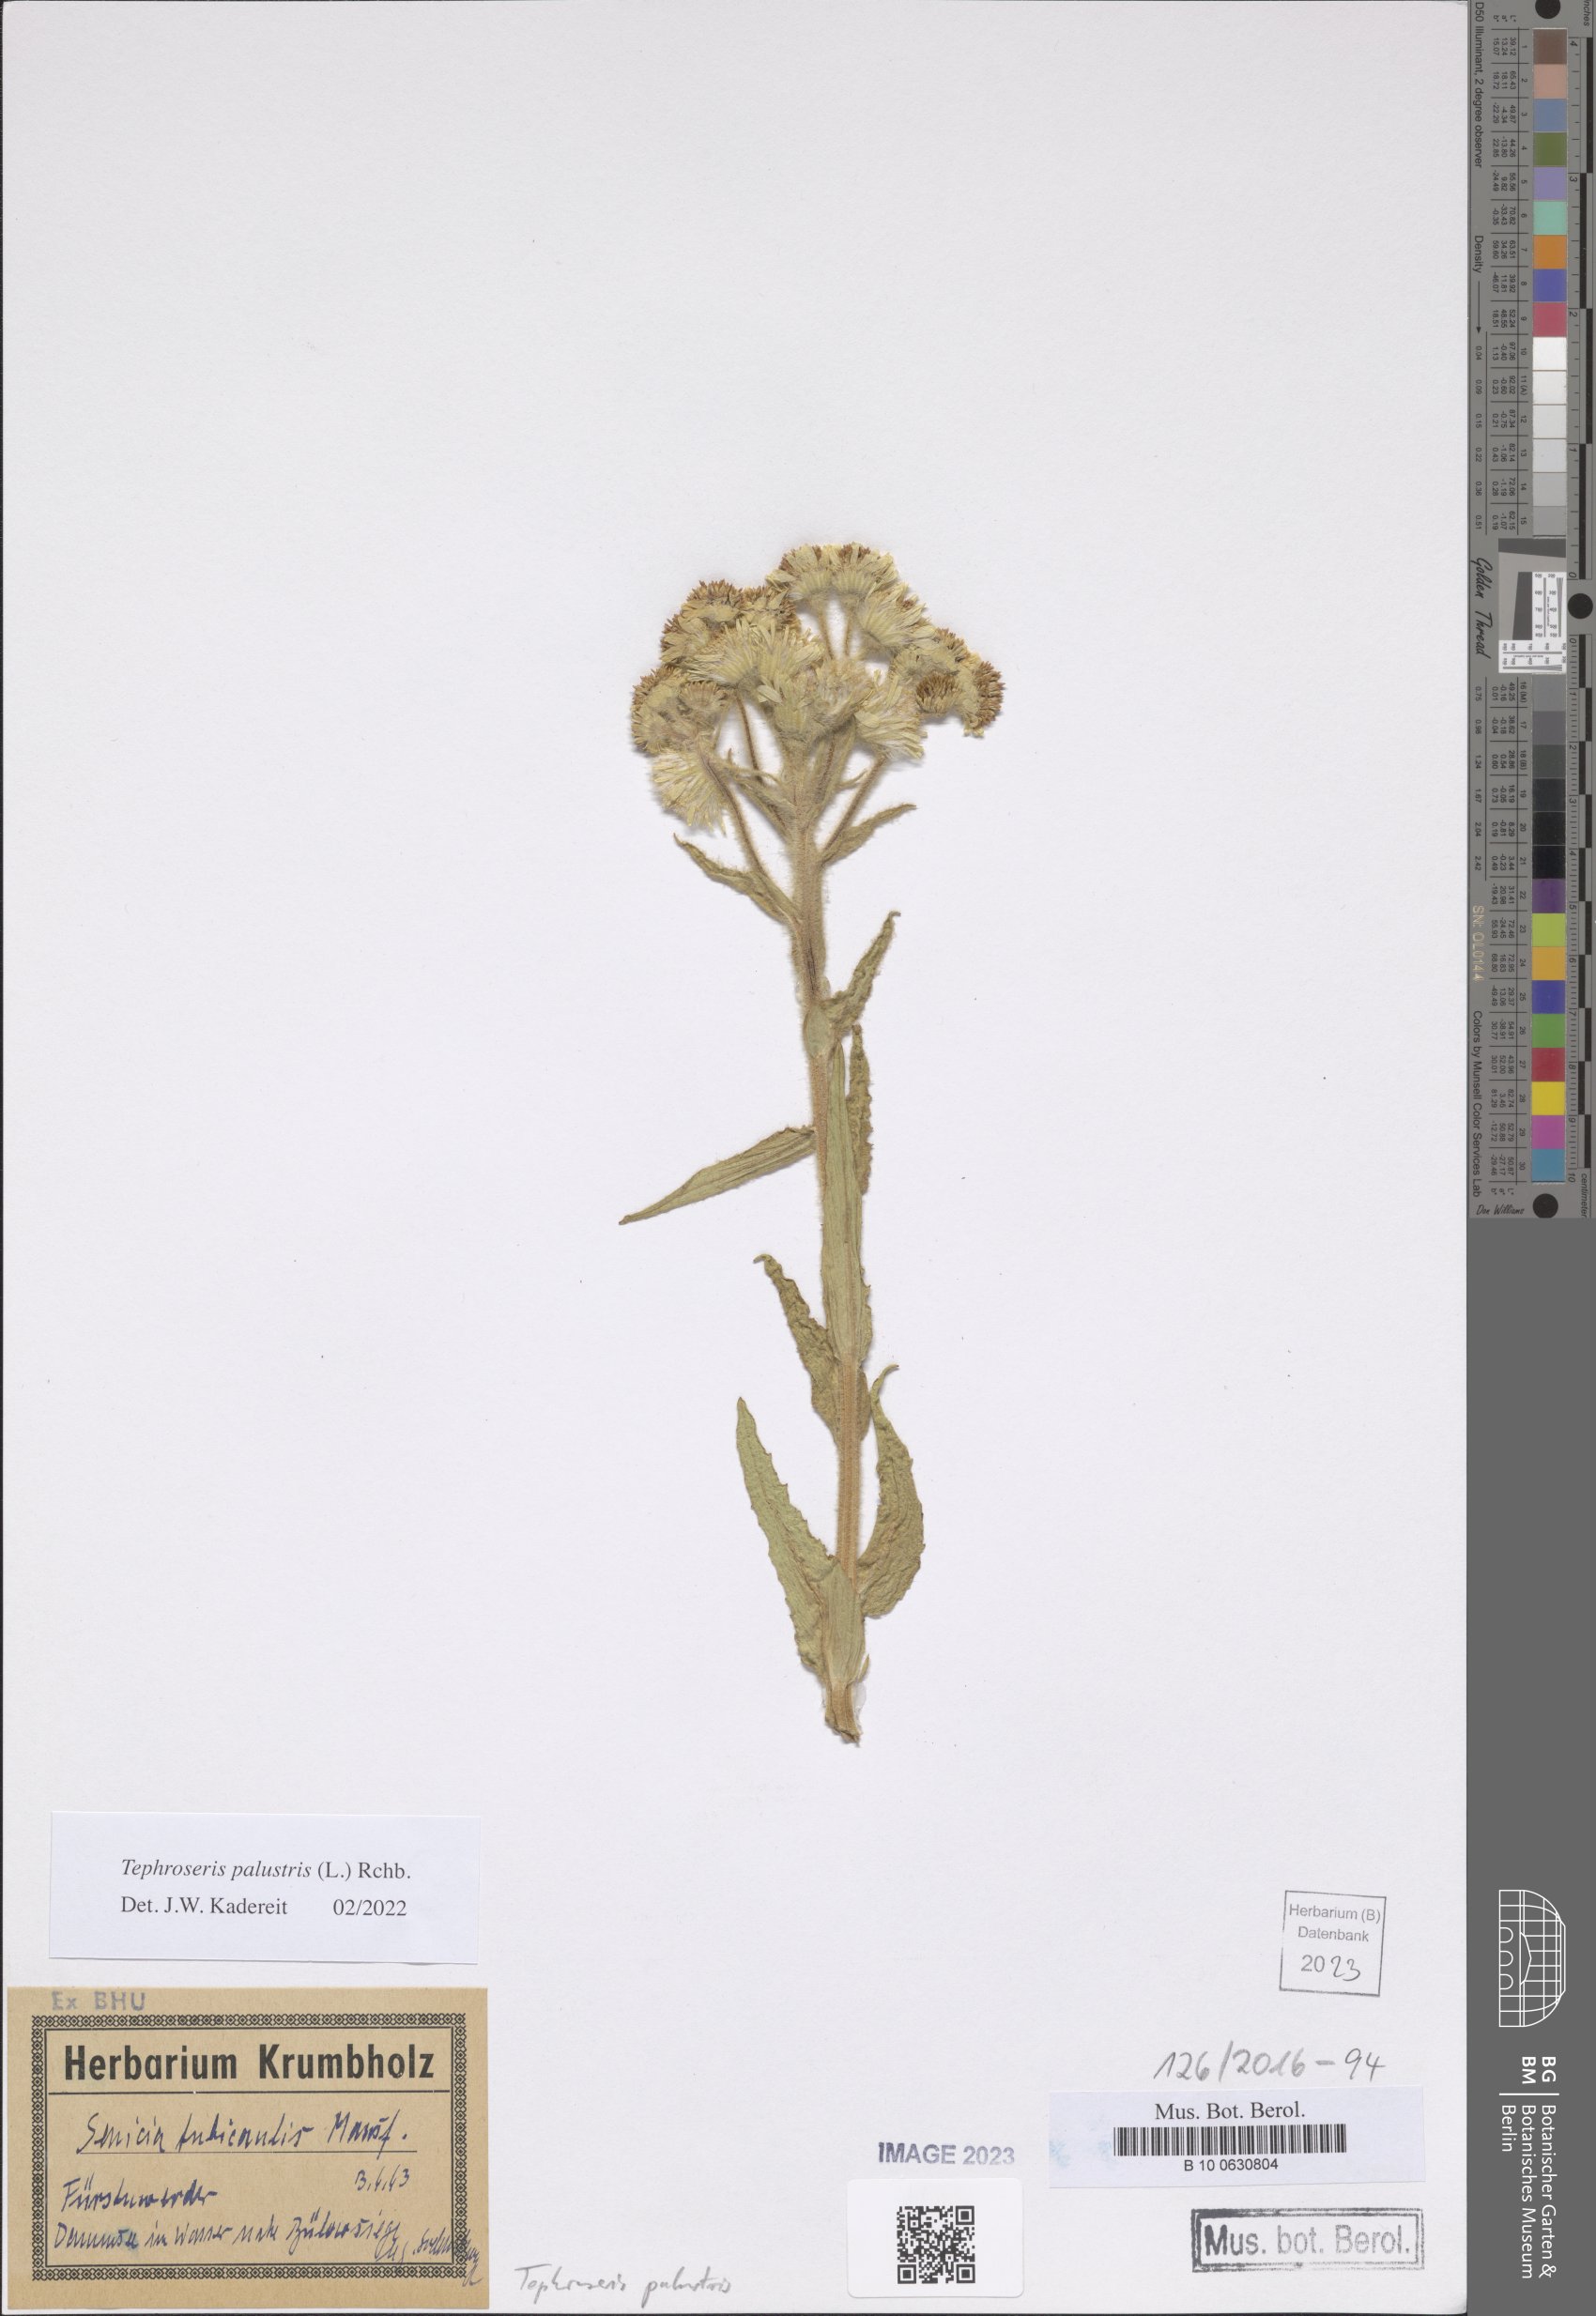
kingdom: Plantae
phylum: Tracheophyta
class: Magnoliopsida
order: Asterales
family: Asteraceae
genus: Tephroseris
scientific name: Tephroseris palustris
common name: Marsh fleawort
